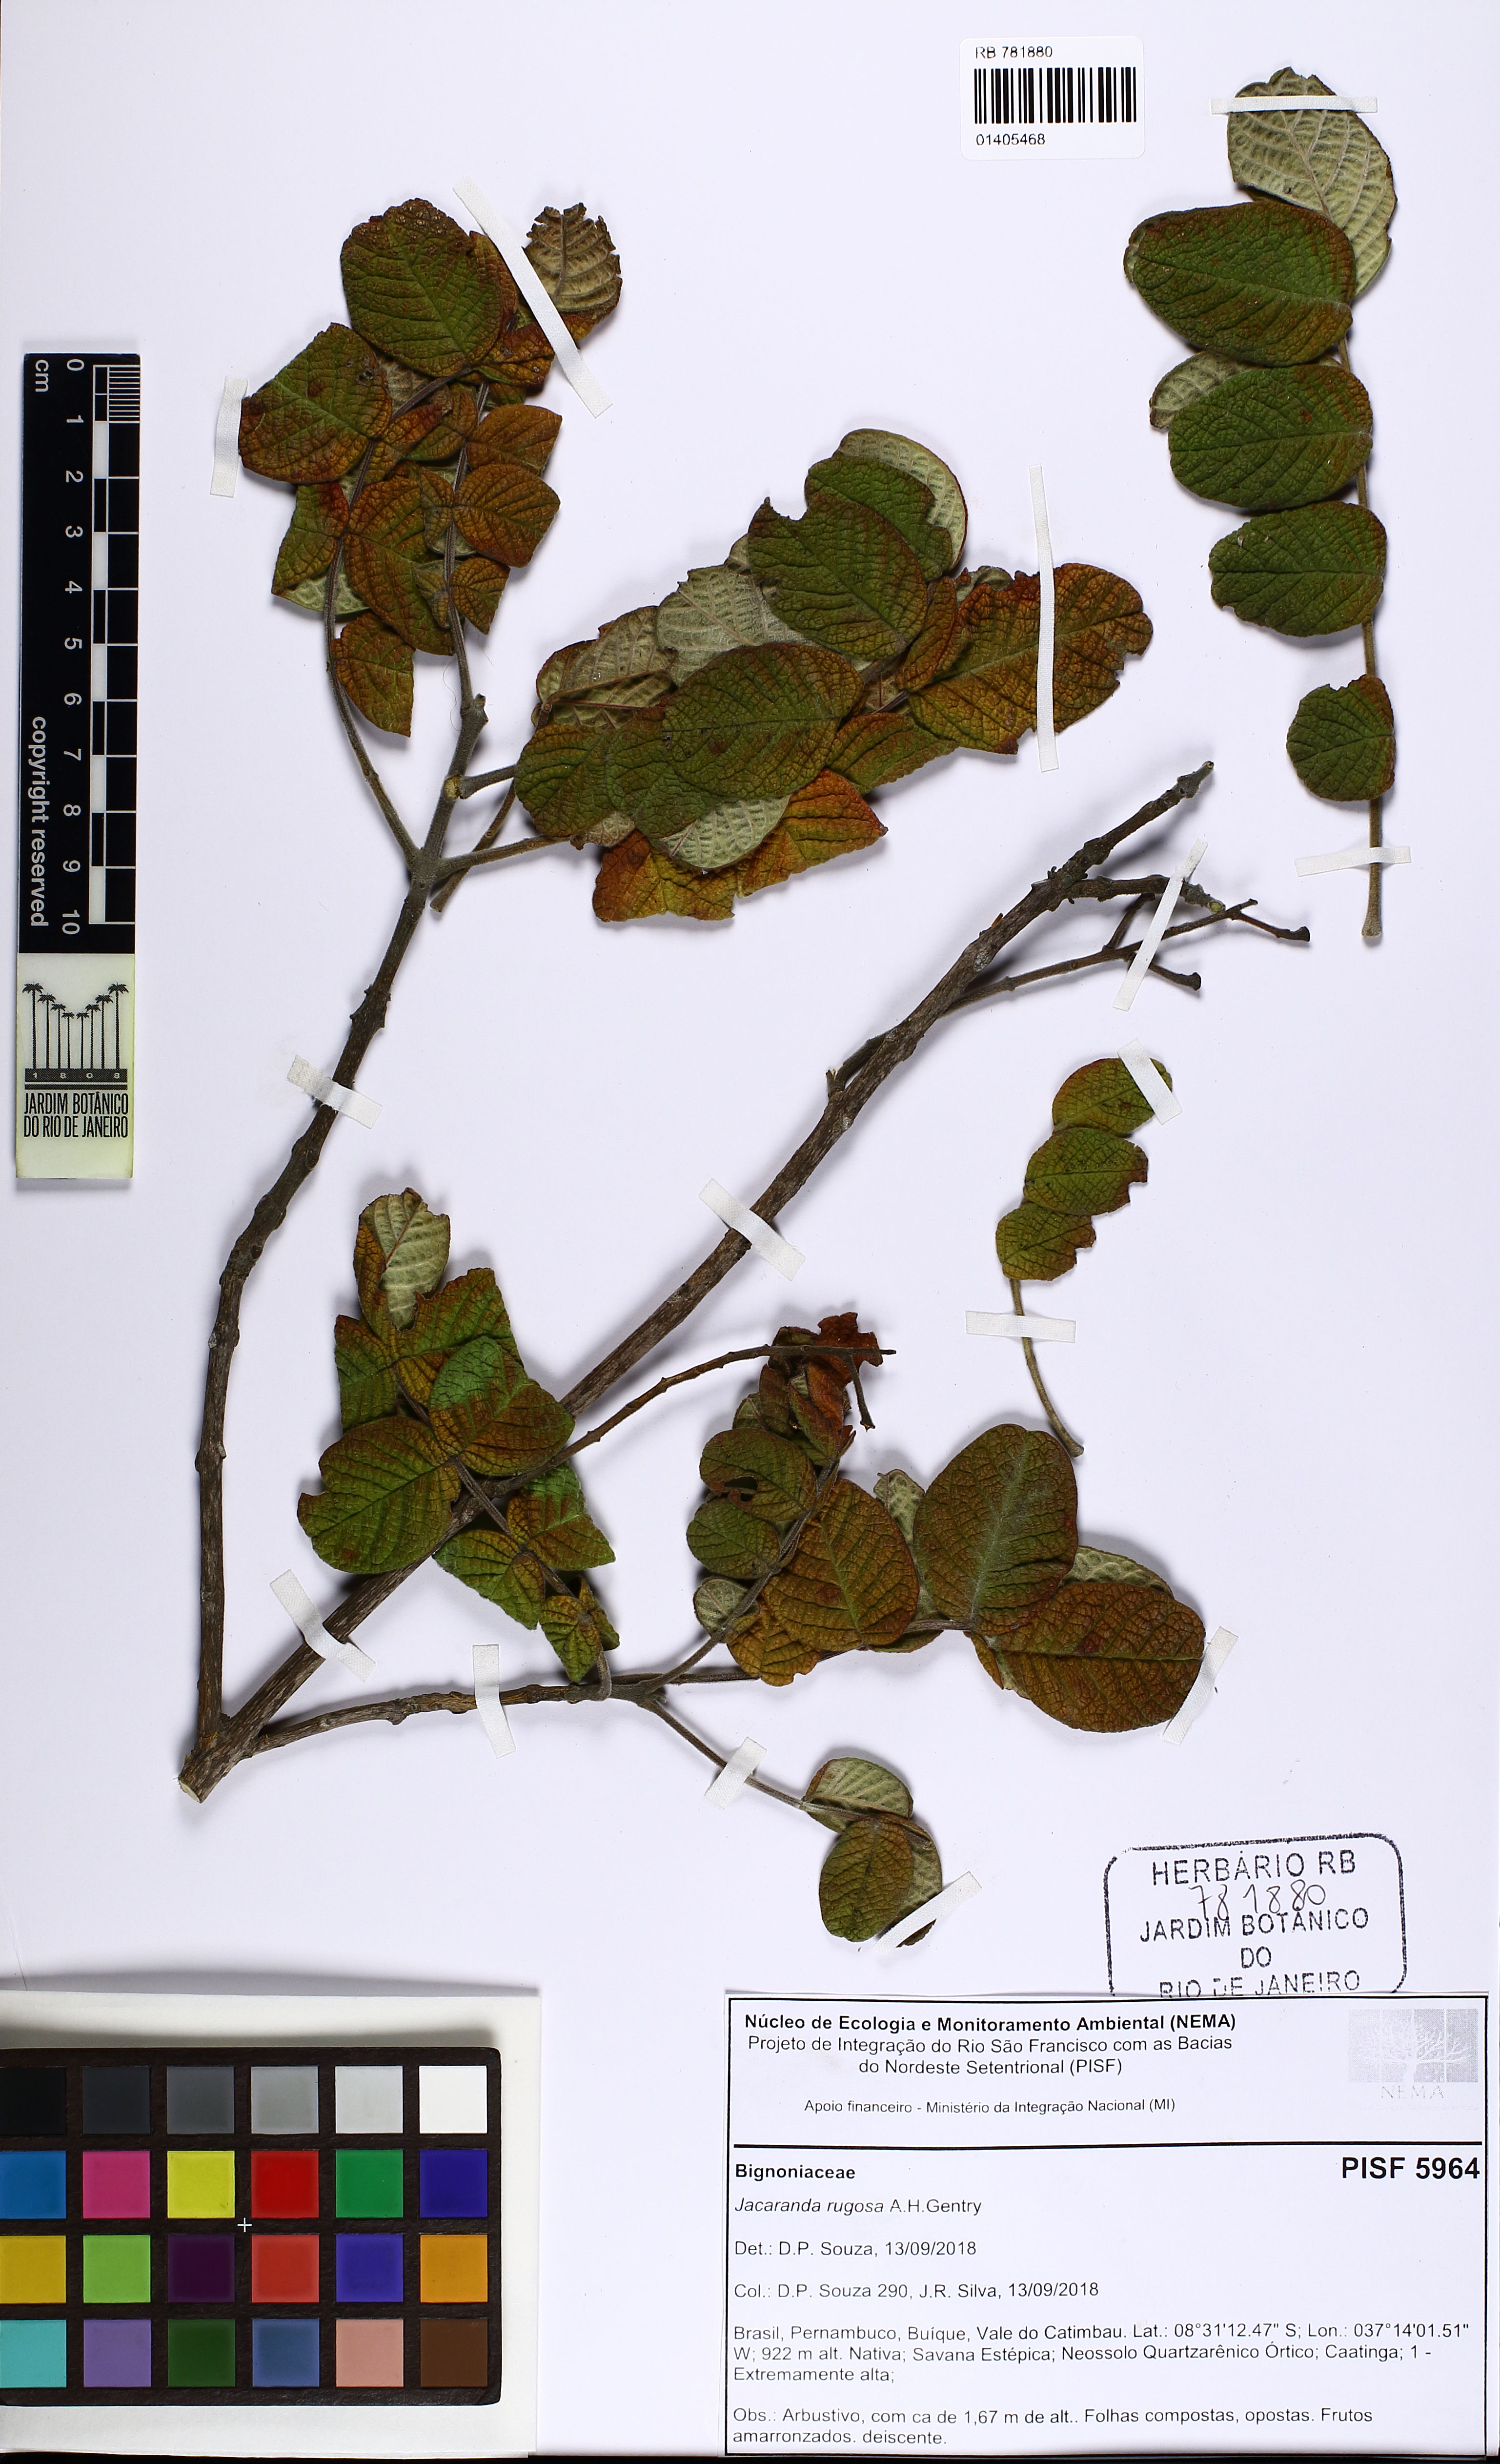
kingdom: Plantae
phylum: Tracheophyta
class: Magnoliopsida
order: Lamiales
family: Bignoniaceae
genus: Jacaranda
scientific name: Jacaranda rugosa
